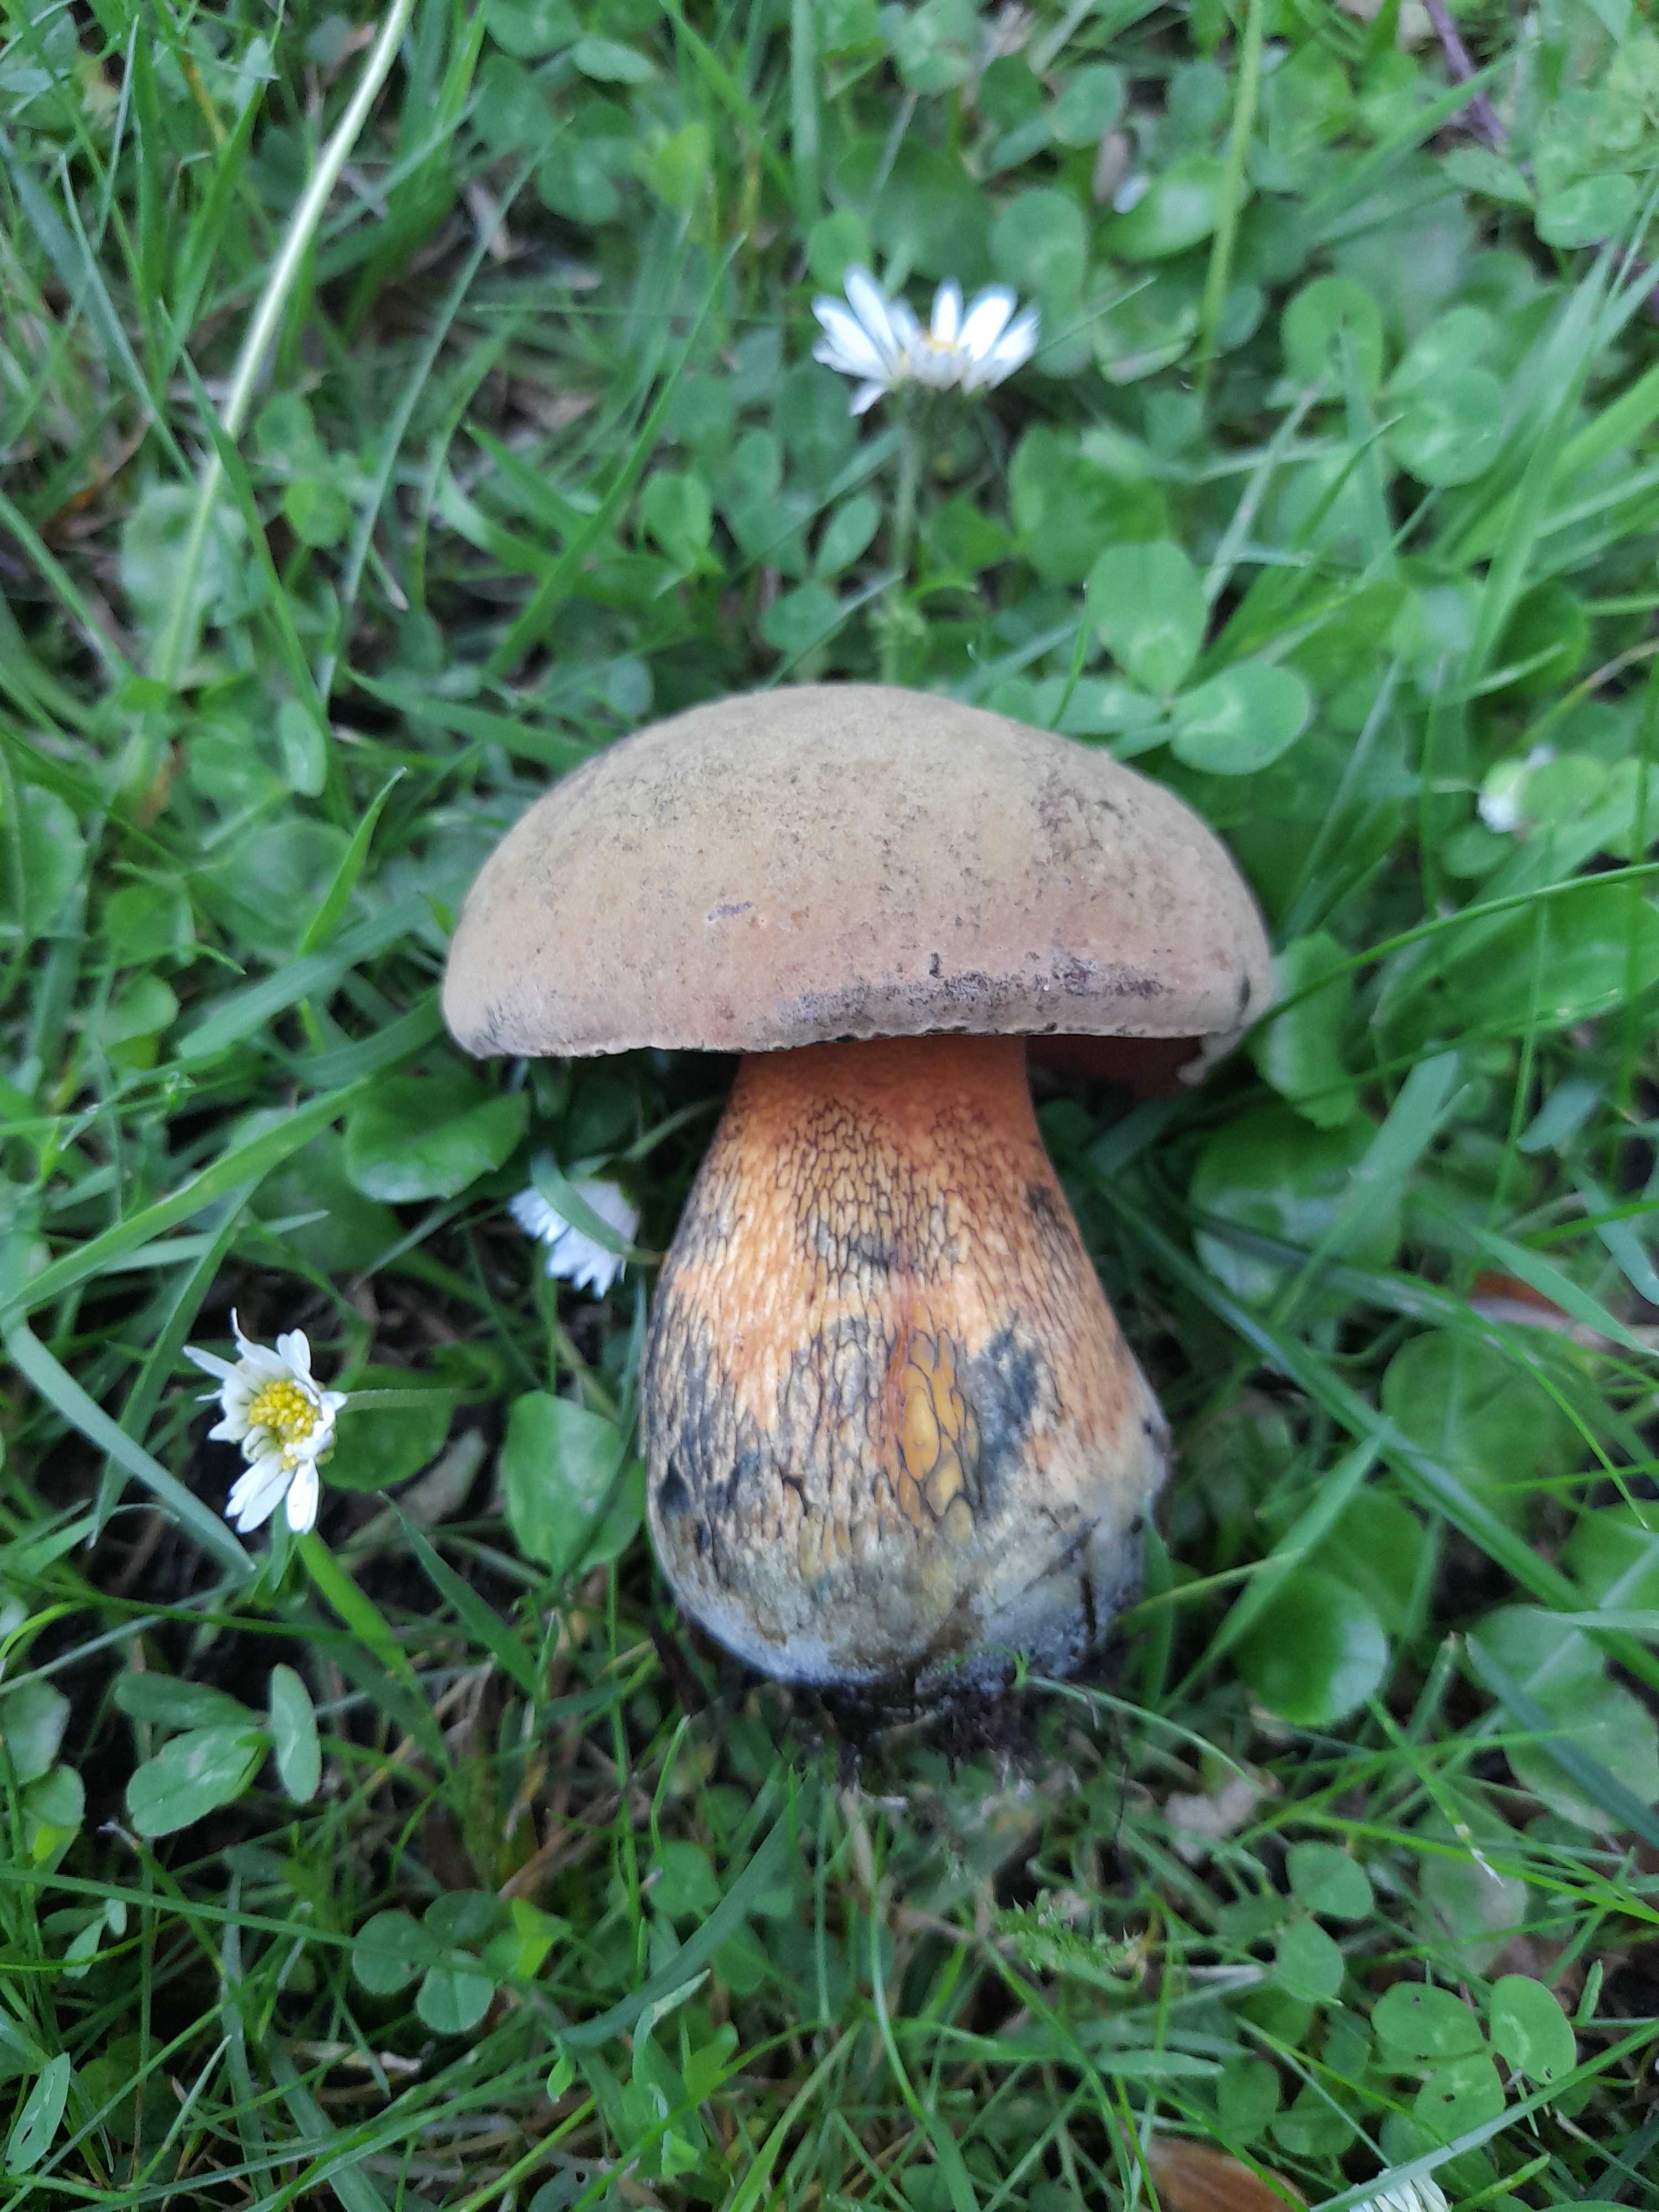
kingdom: Fungi
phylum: Basidiomycota
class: Agaricomycetes
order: Boletales
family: Boletaceae
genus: Suillellus
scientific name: Suillellus luridus
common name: netstokket indigorørhat
